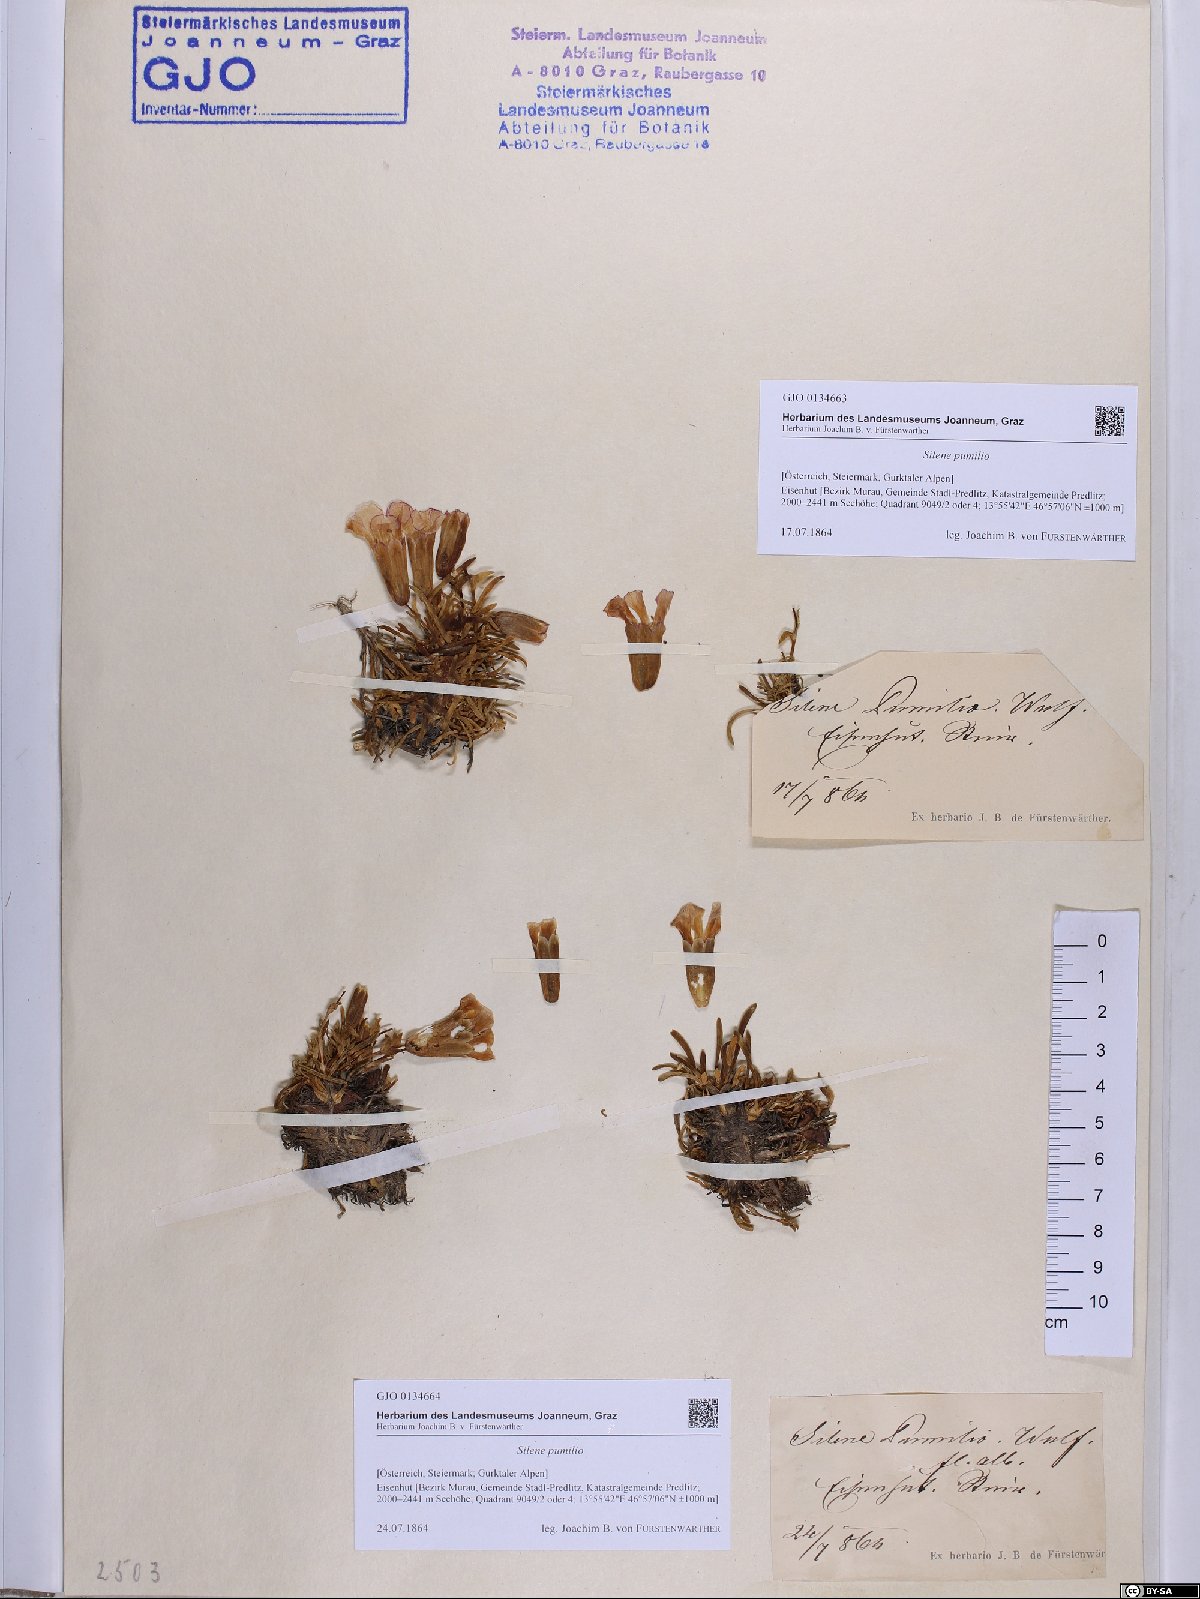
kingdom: Plantae
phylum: Tracheophyta
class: Magnoliopsida
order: Caryophyllales
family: Caryophyllaceae
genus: Saponaria
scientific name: Saponaria pumila
